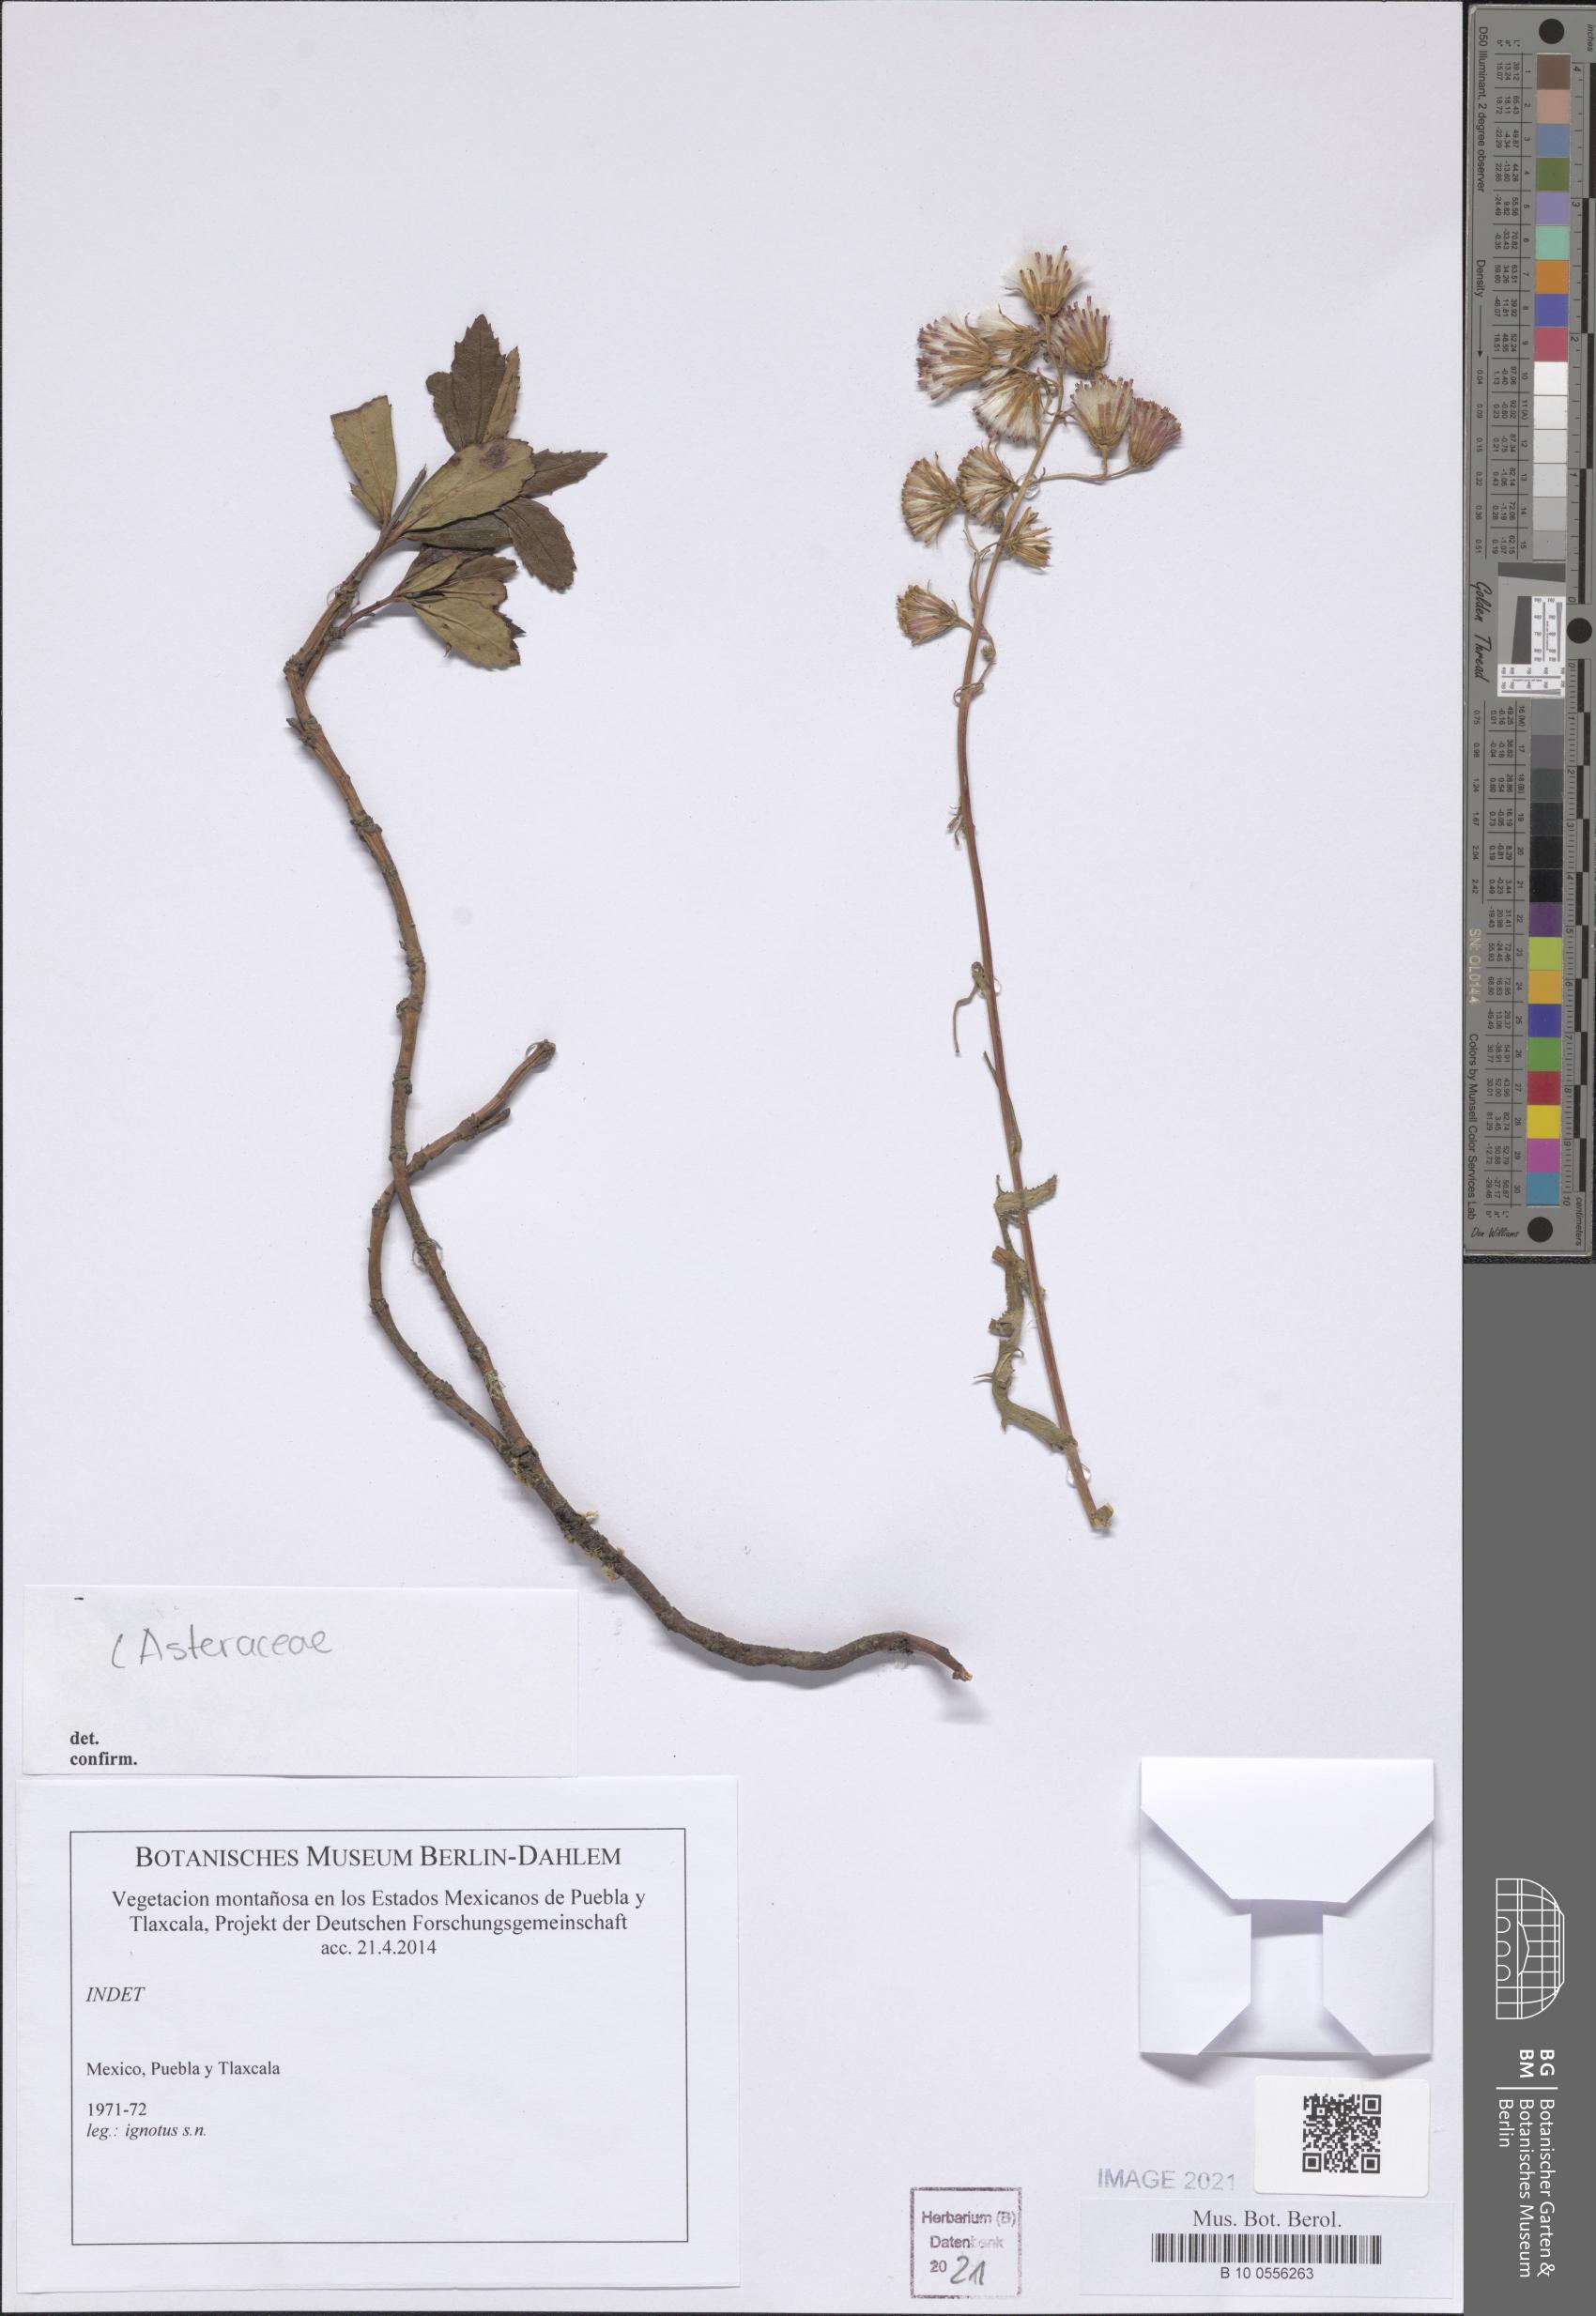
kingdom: Plantae
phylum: Tracheophyta
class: Magnoliopsida
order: Asterales
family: Asteraceae
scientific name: Asteraceae
